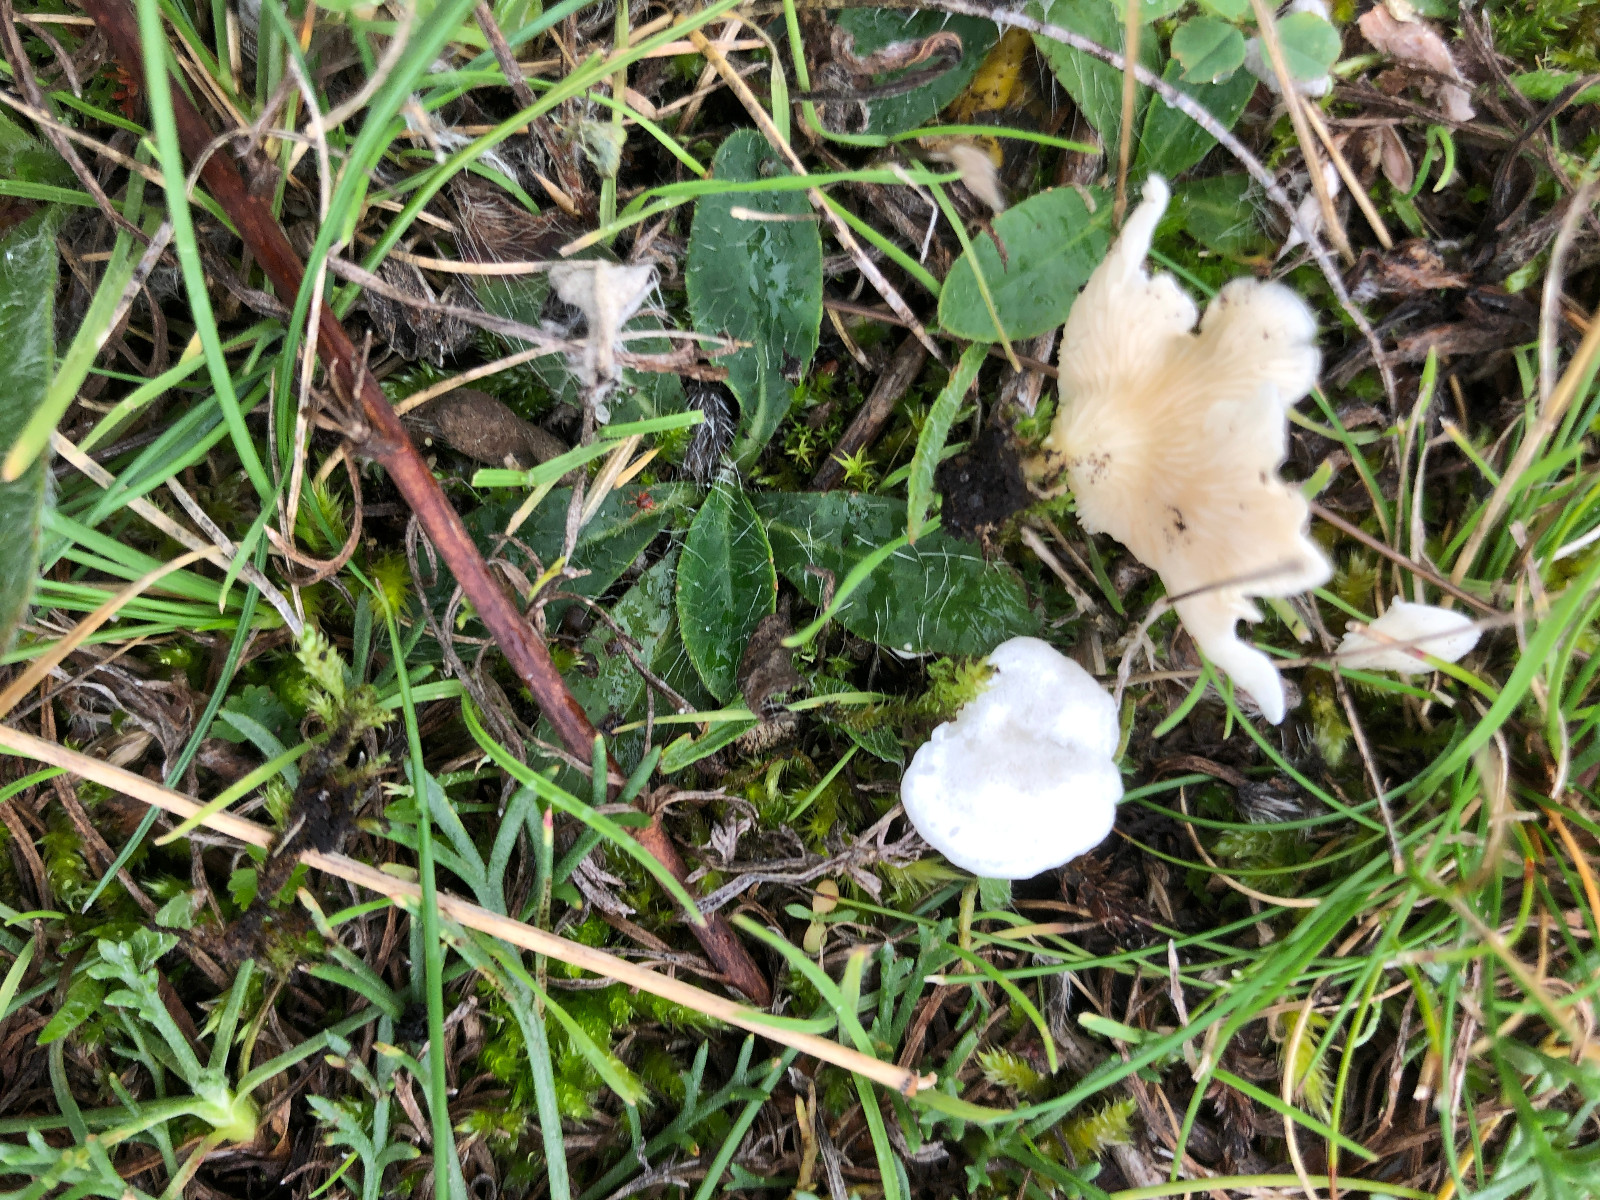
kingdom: Fungi
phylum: Basidiomycota
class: Agaricomycetes
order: Agaricales
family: Entolomataceae
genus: Clitopilus
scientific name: Clitopilus scyphoides
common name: spinkel melhat
